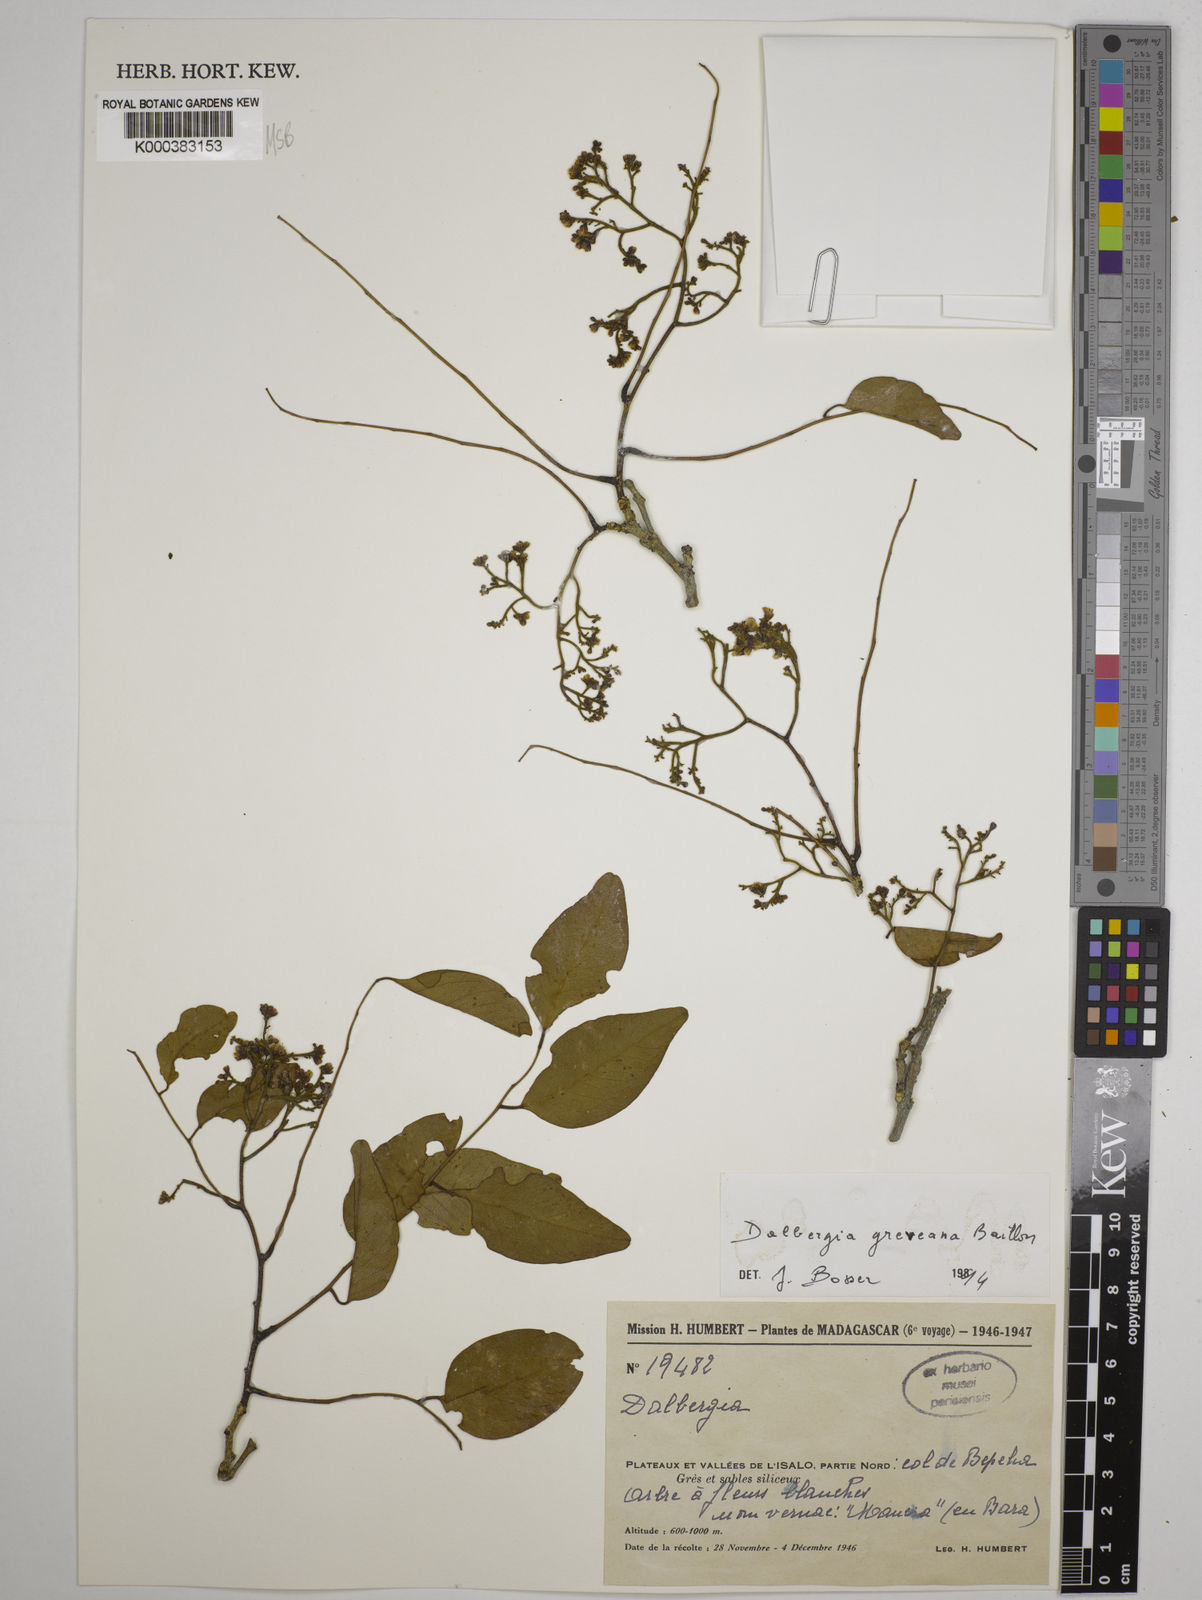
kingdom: Plantae
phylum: Tracheophyta
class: Magnoliopsida
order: Fabales
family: Fabaceae
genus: Dalbergia
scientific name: Dalbergia greveana
